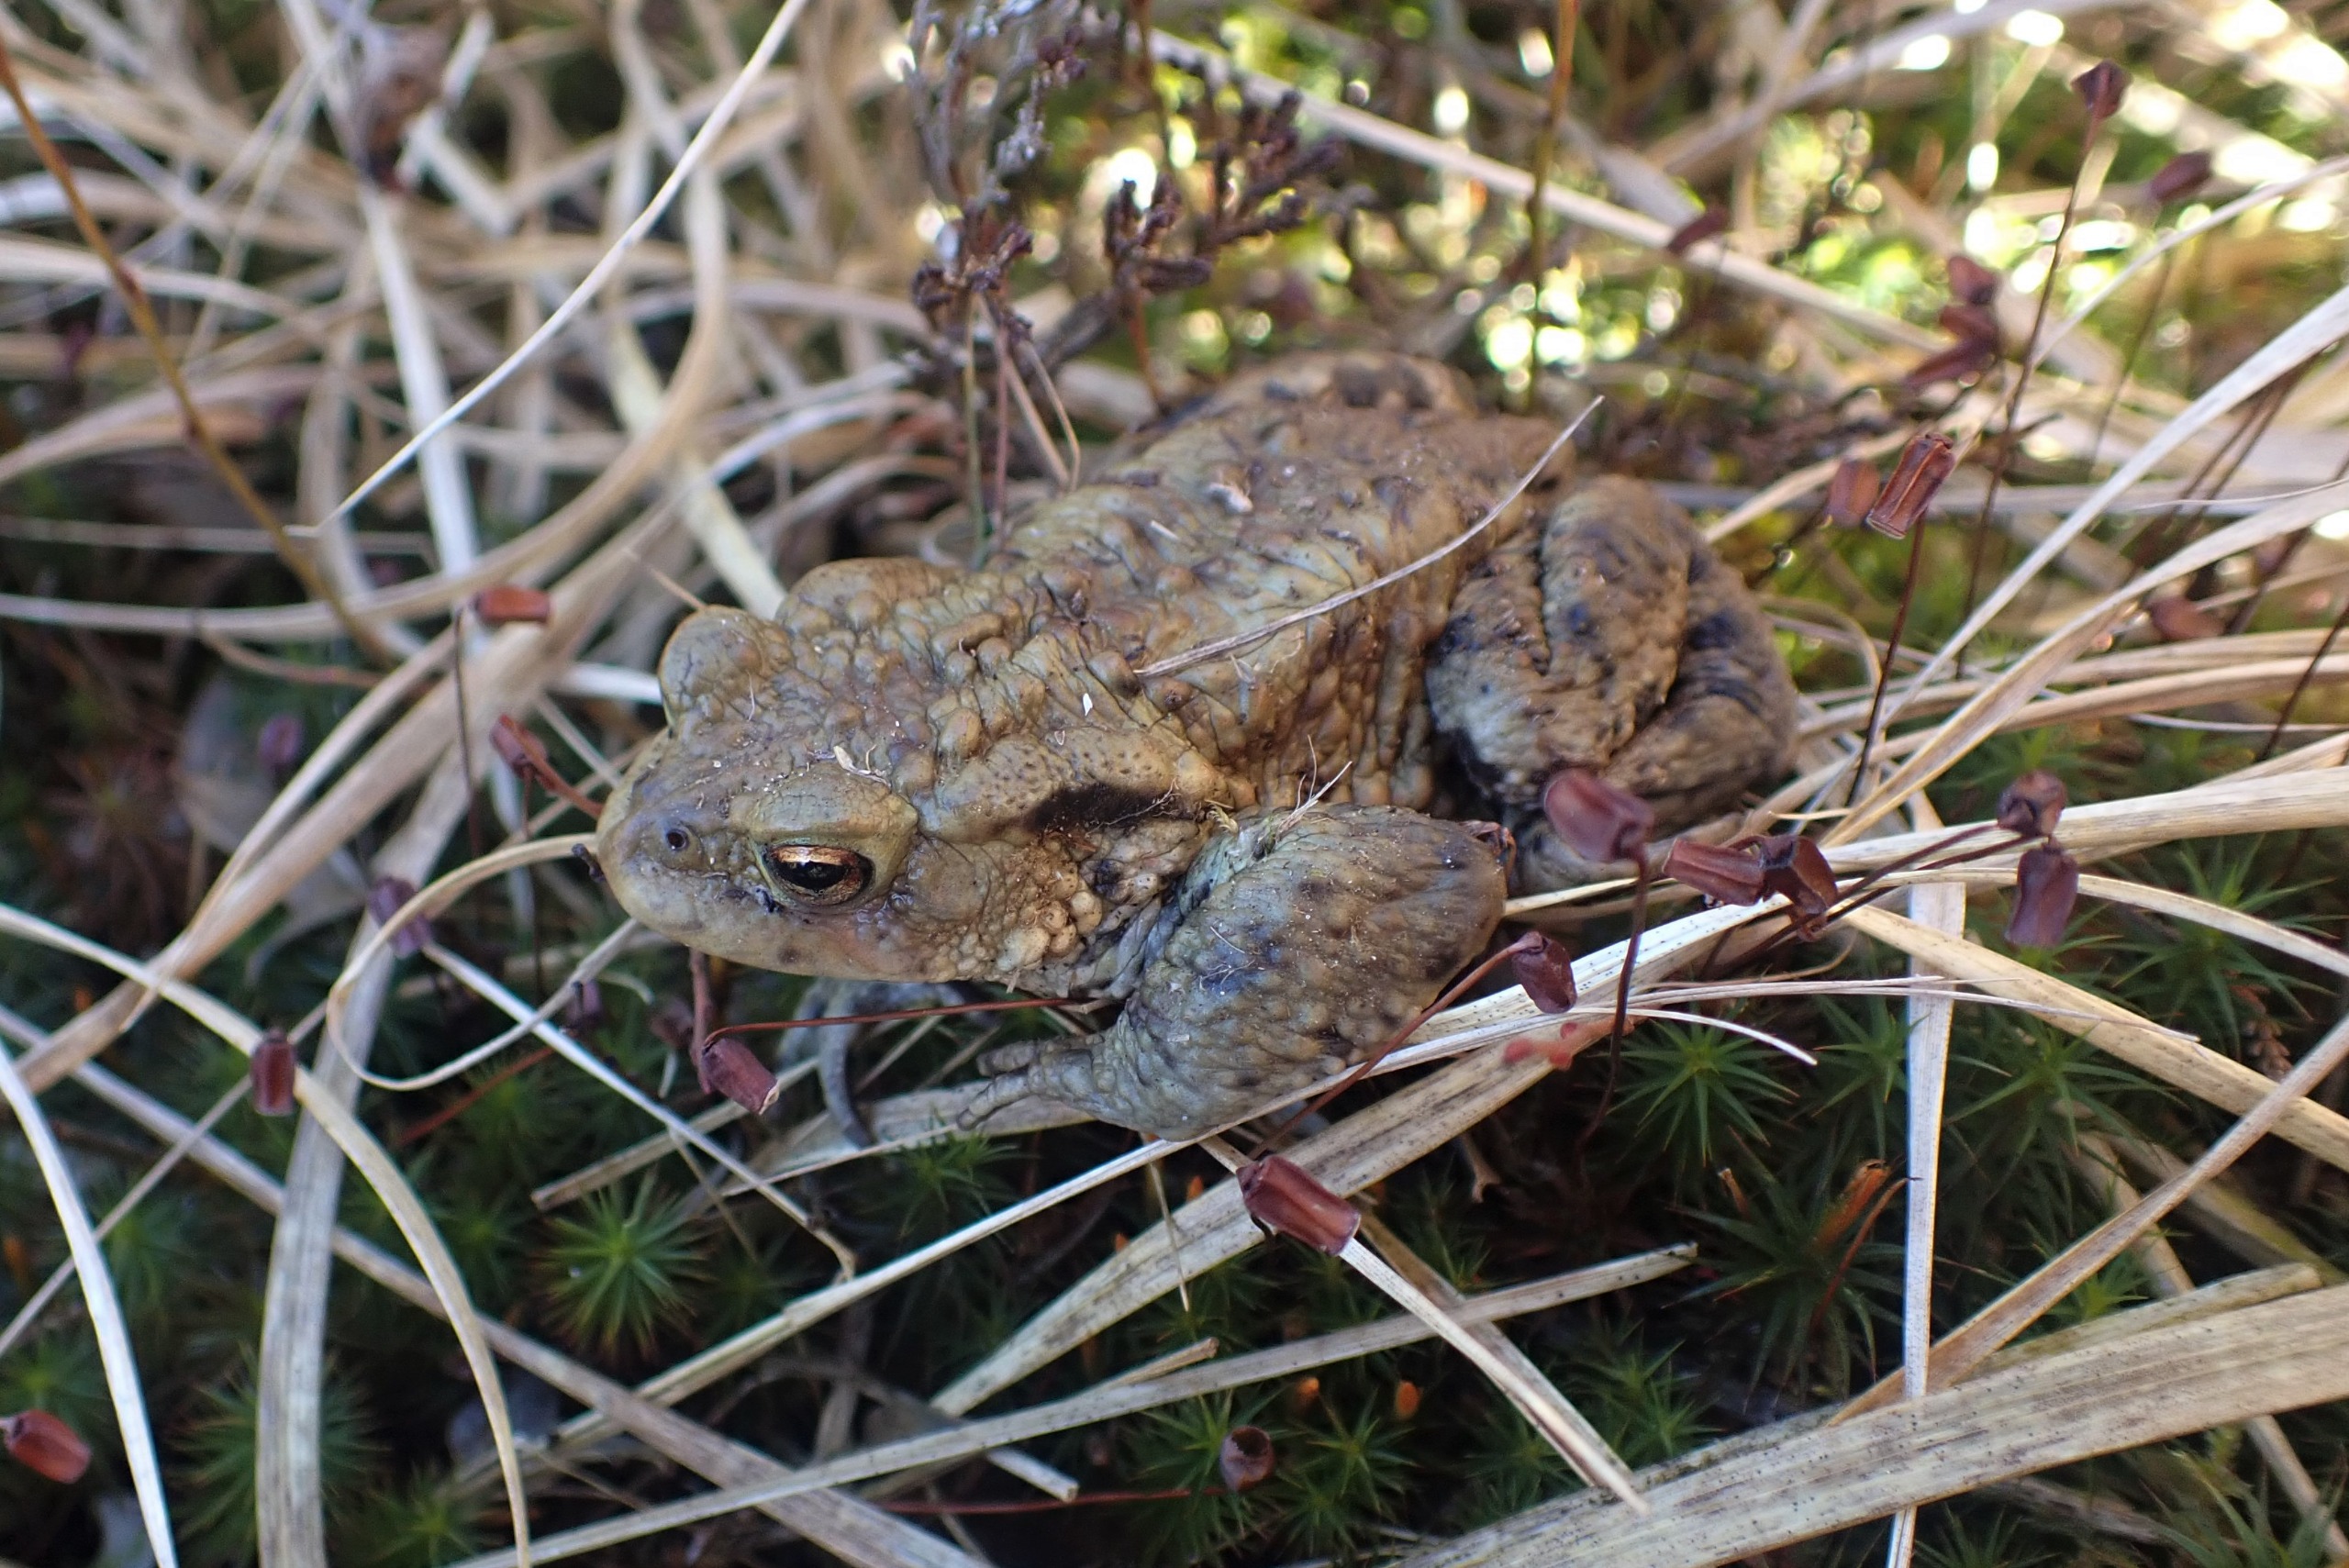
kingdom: Animalia
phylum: Chordata
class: Amphibia
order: Anura
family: Bufonidae
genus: Bufo
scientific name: Bufo bufo
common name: Skrubtudse
